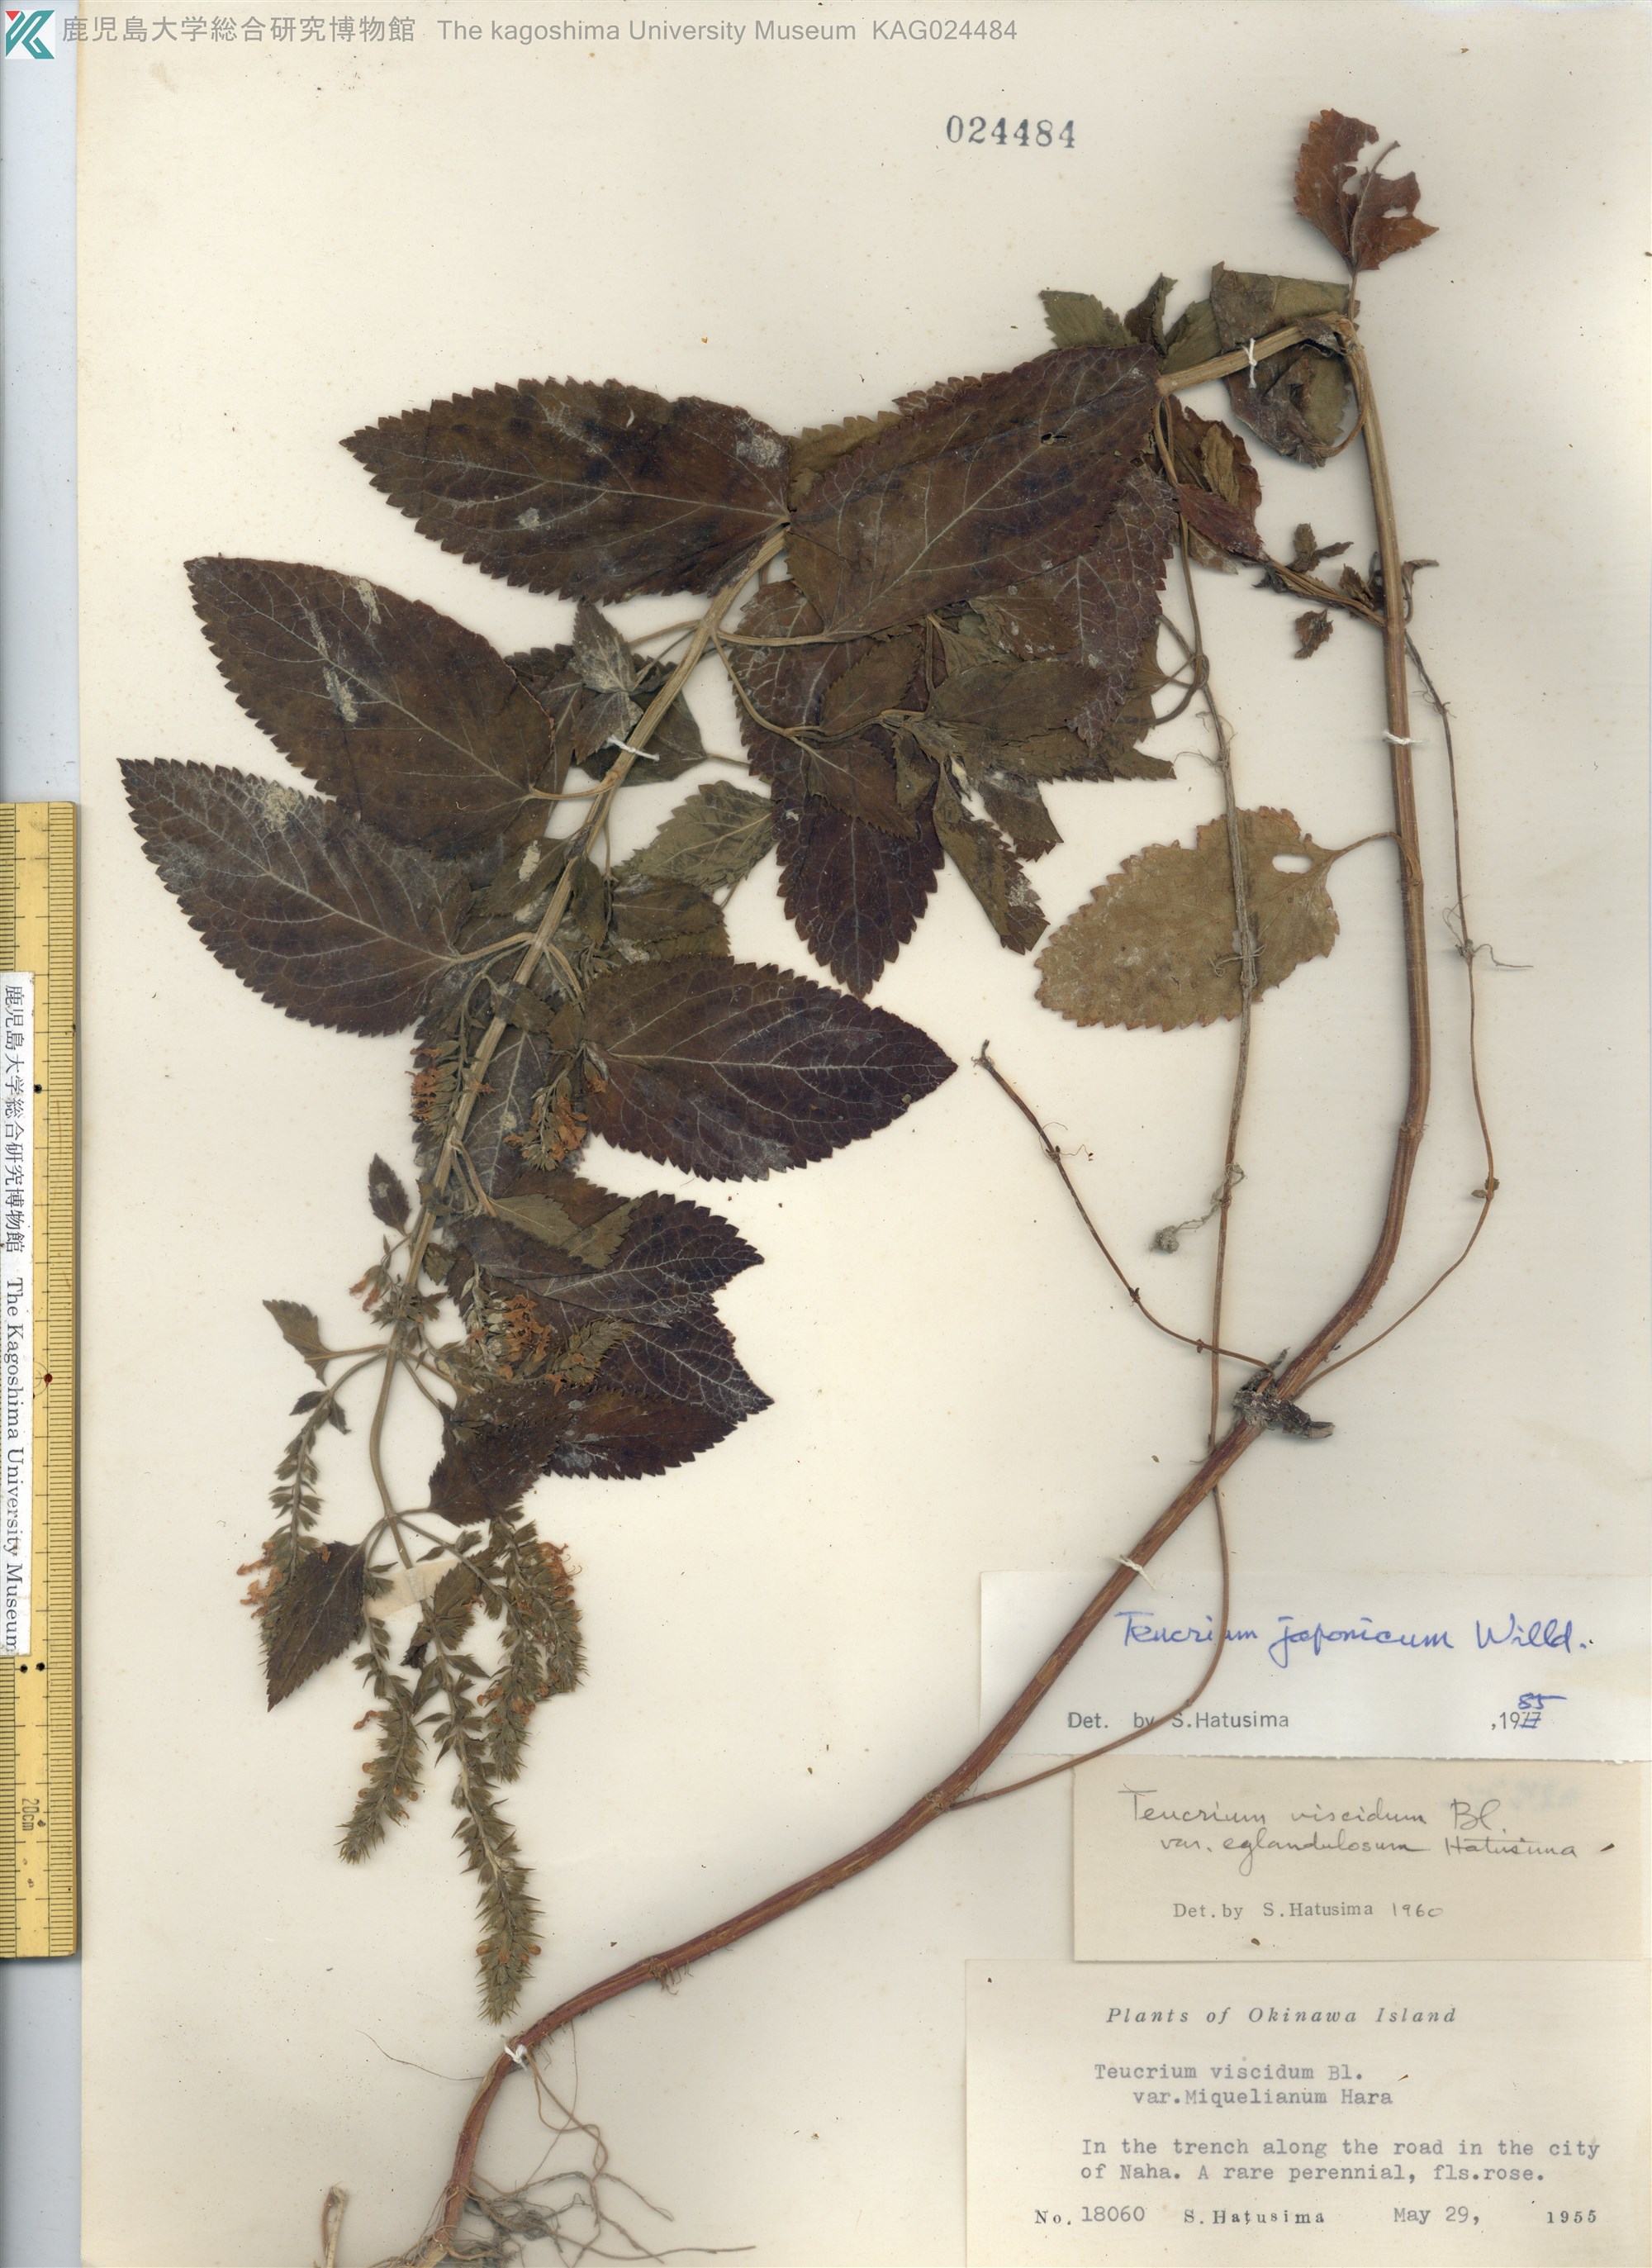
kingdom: Plantae
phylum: Tracheophyta
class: Magnoliopsida
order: Lamiales
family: Lamiaceae
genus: Teucrium
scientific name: Teucrium japonicum
